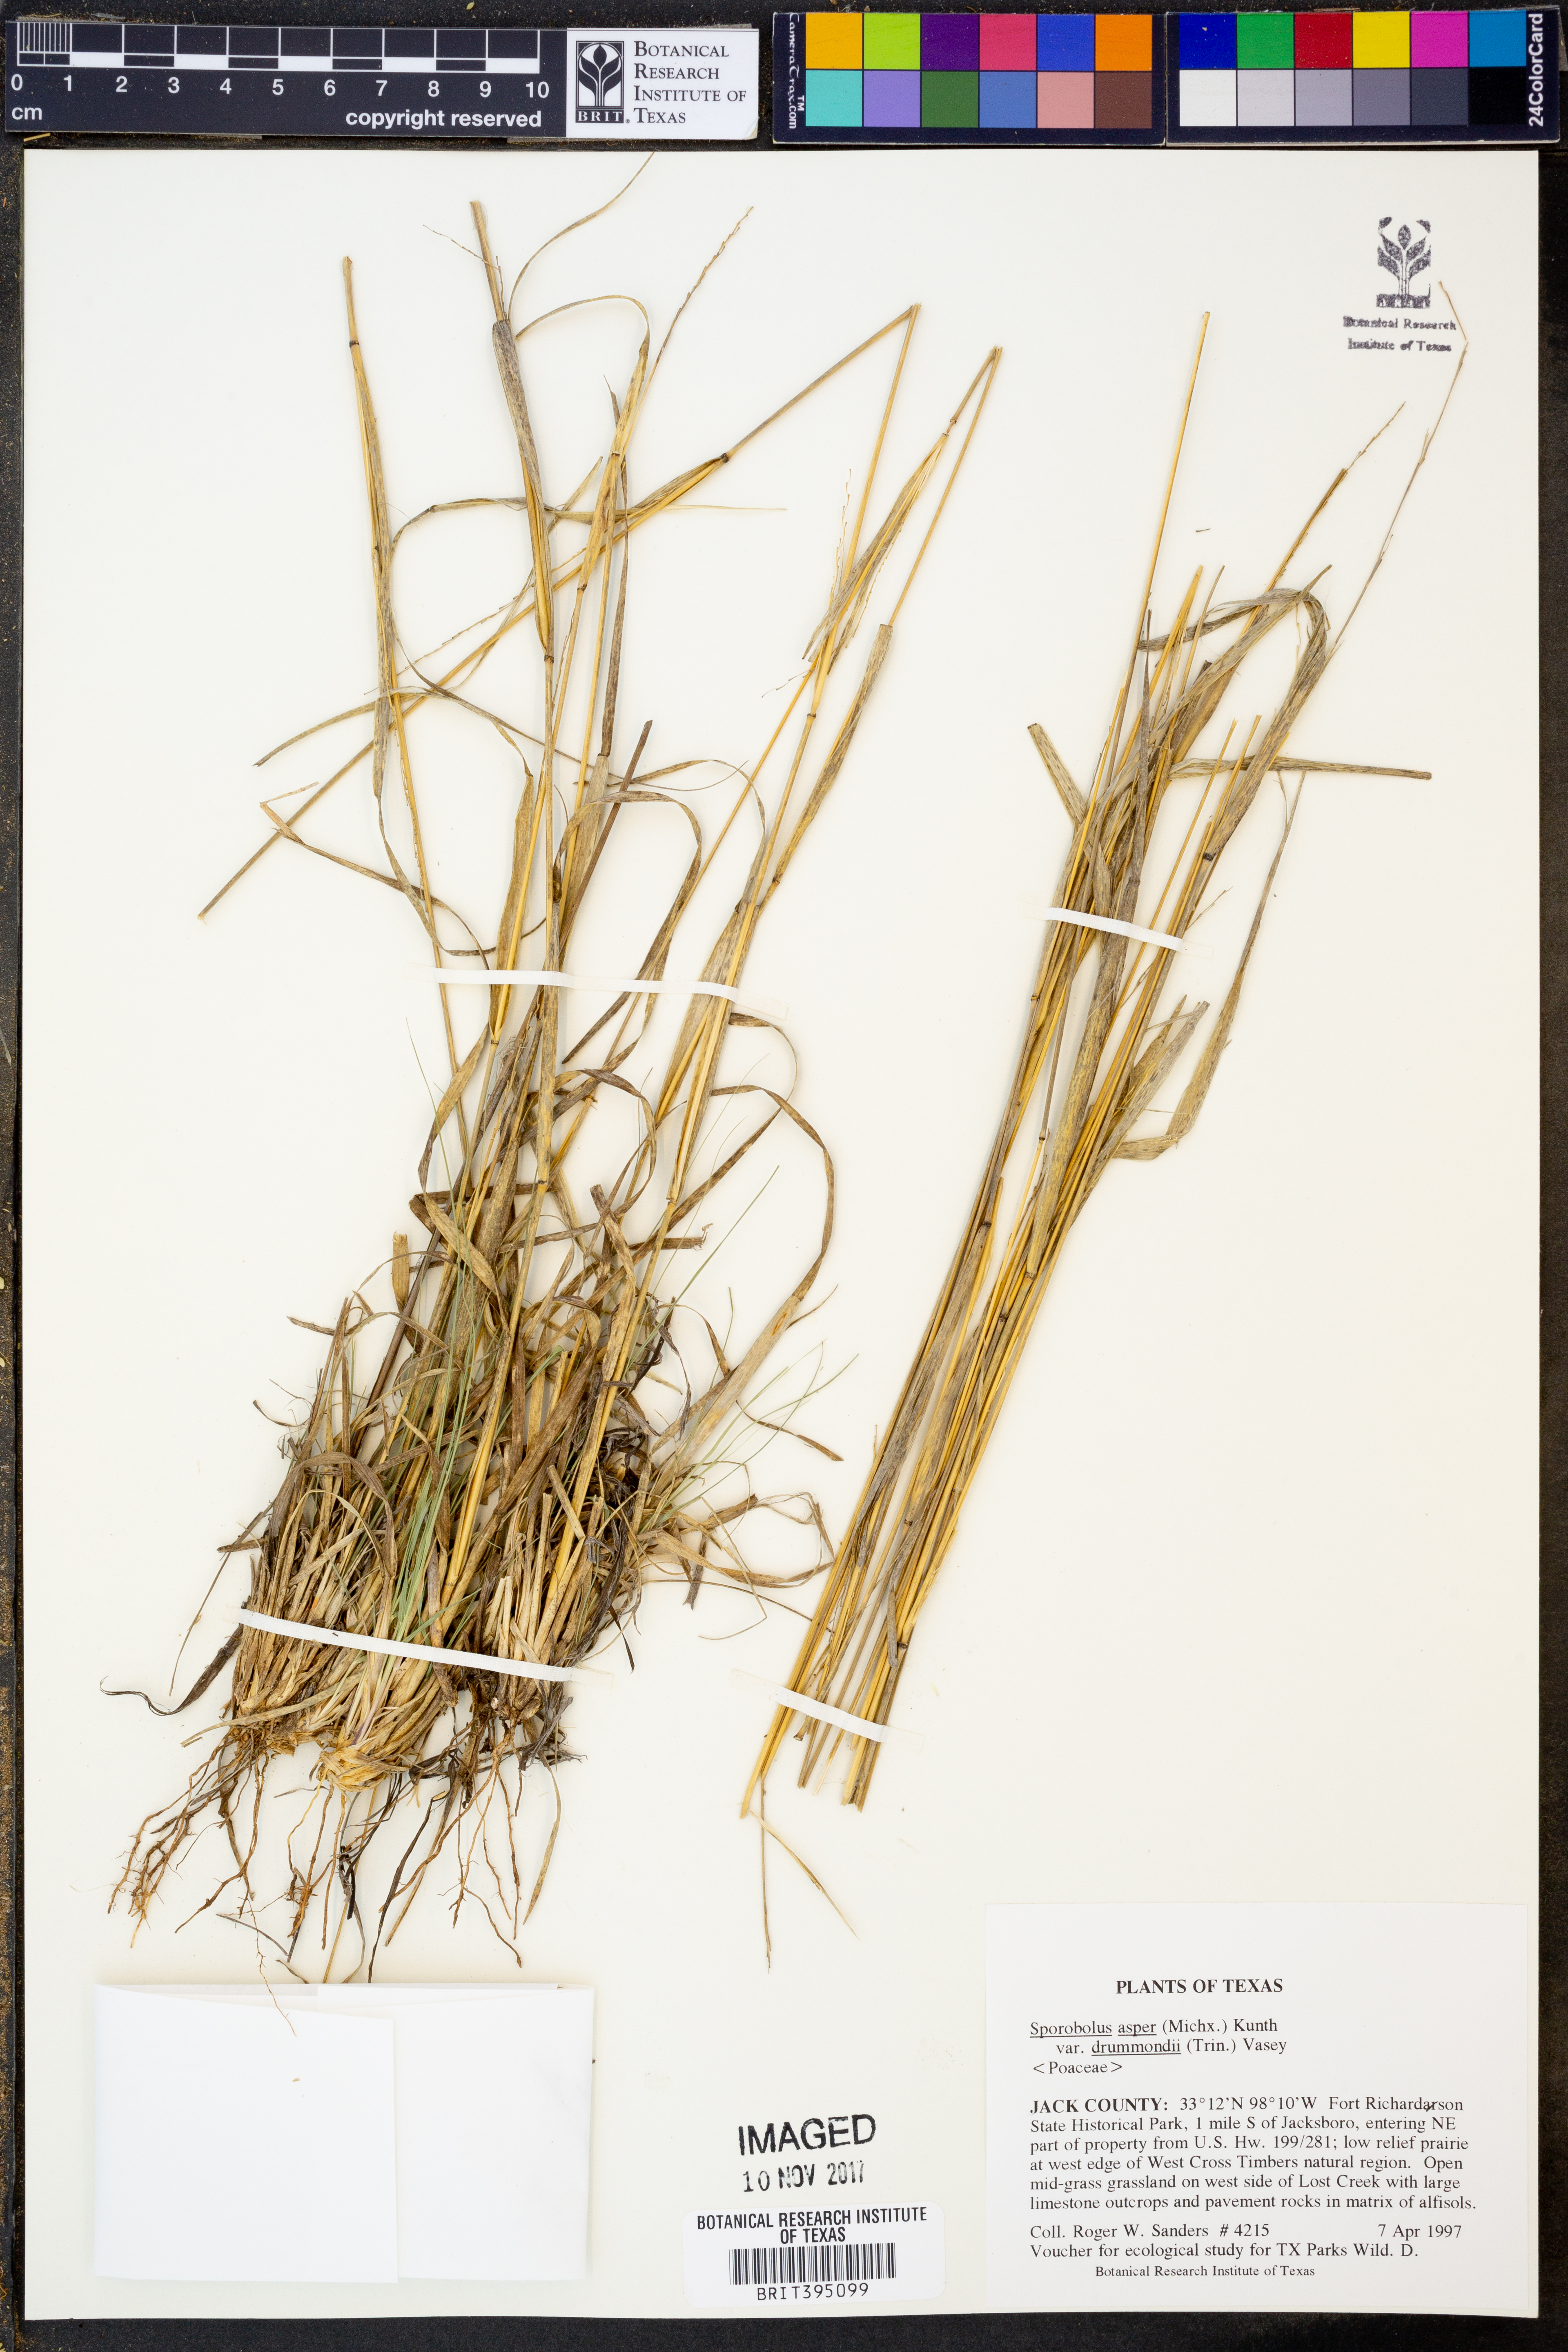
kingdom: Plantae
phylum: Tracheophyta
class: Liliopsida
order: Poales
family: Poaceae
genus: Sporobolus
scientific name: Sporobolus compositus
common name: Rough dropseed
